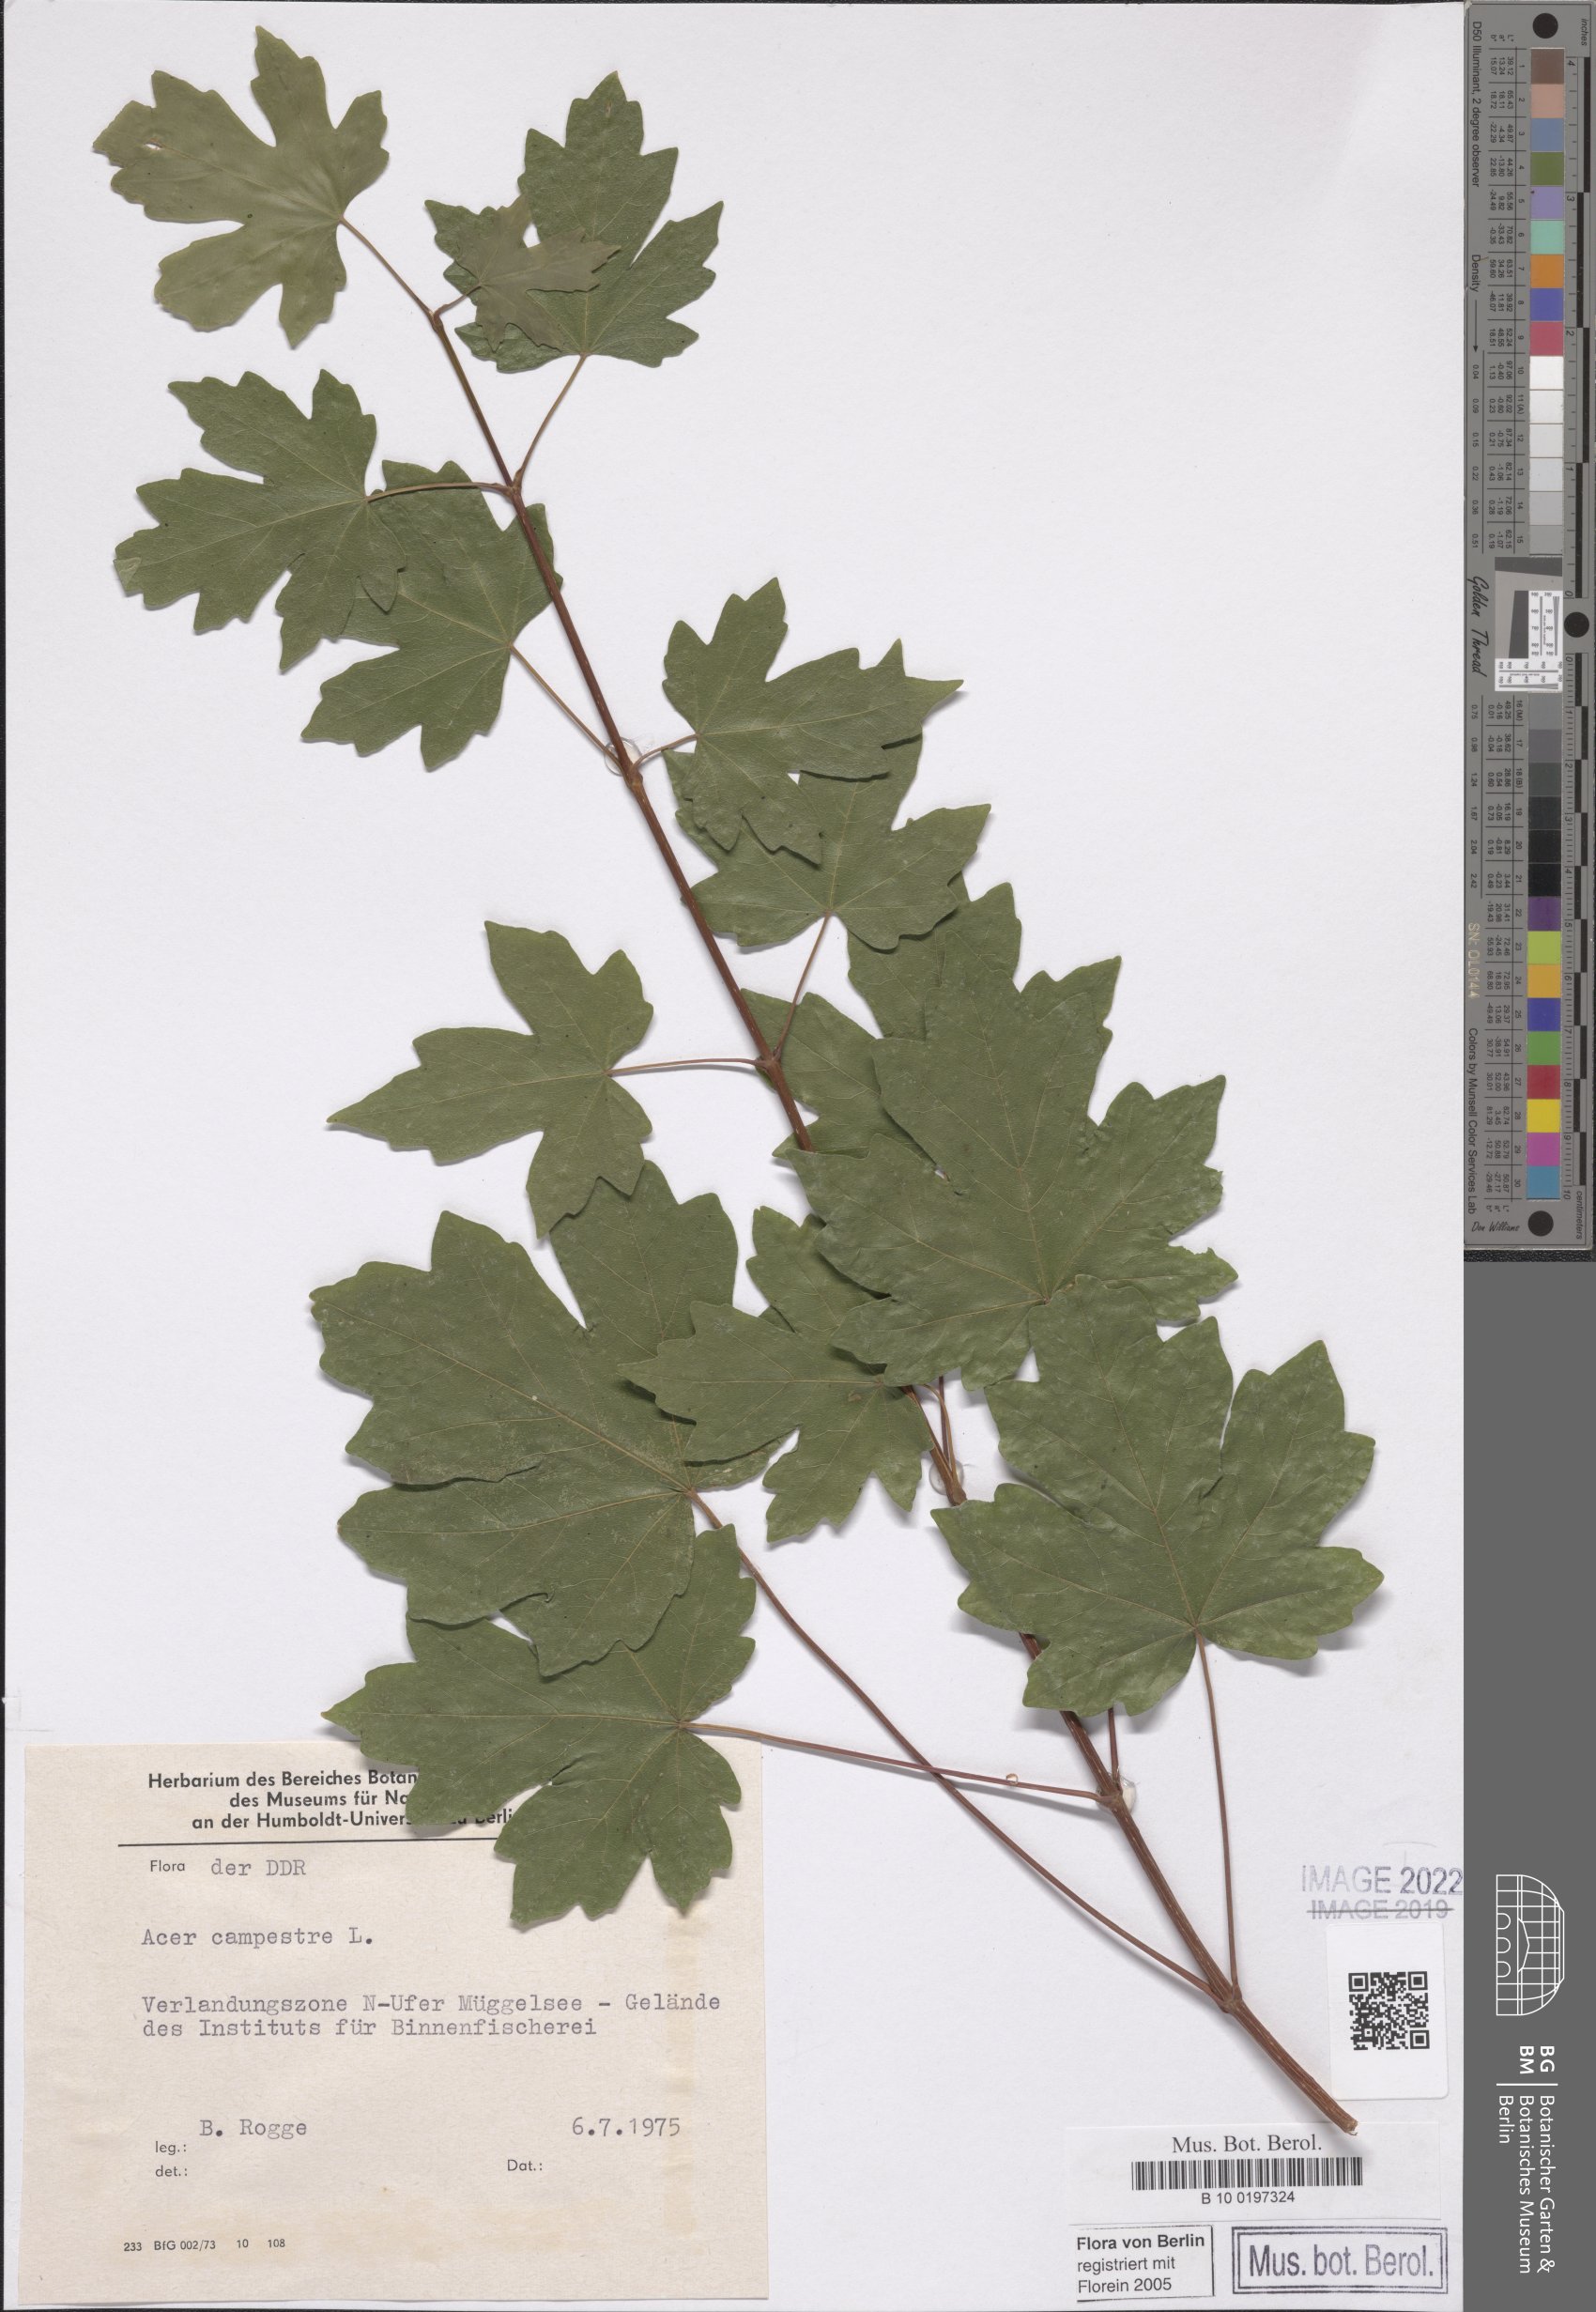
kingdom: Plantae
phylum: Tracheophyta
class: Magnoliopsida
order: Sapindales
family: Sapindaceae
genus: Acer
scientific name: Acer campestre
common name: Field maple
